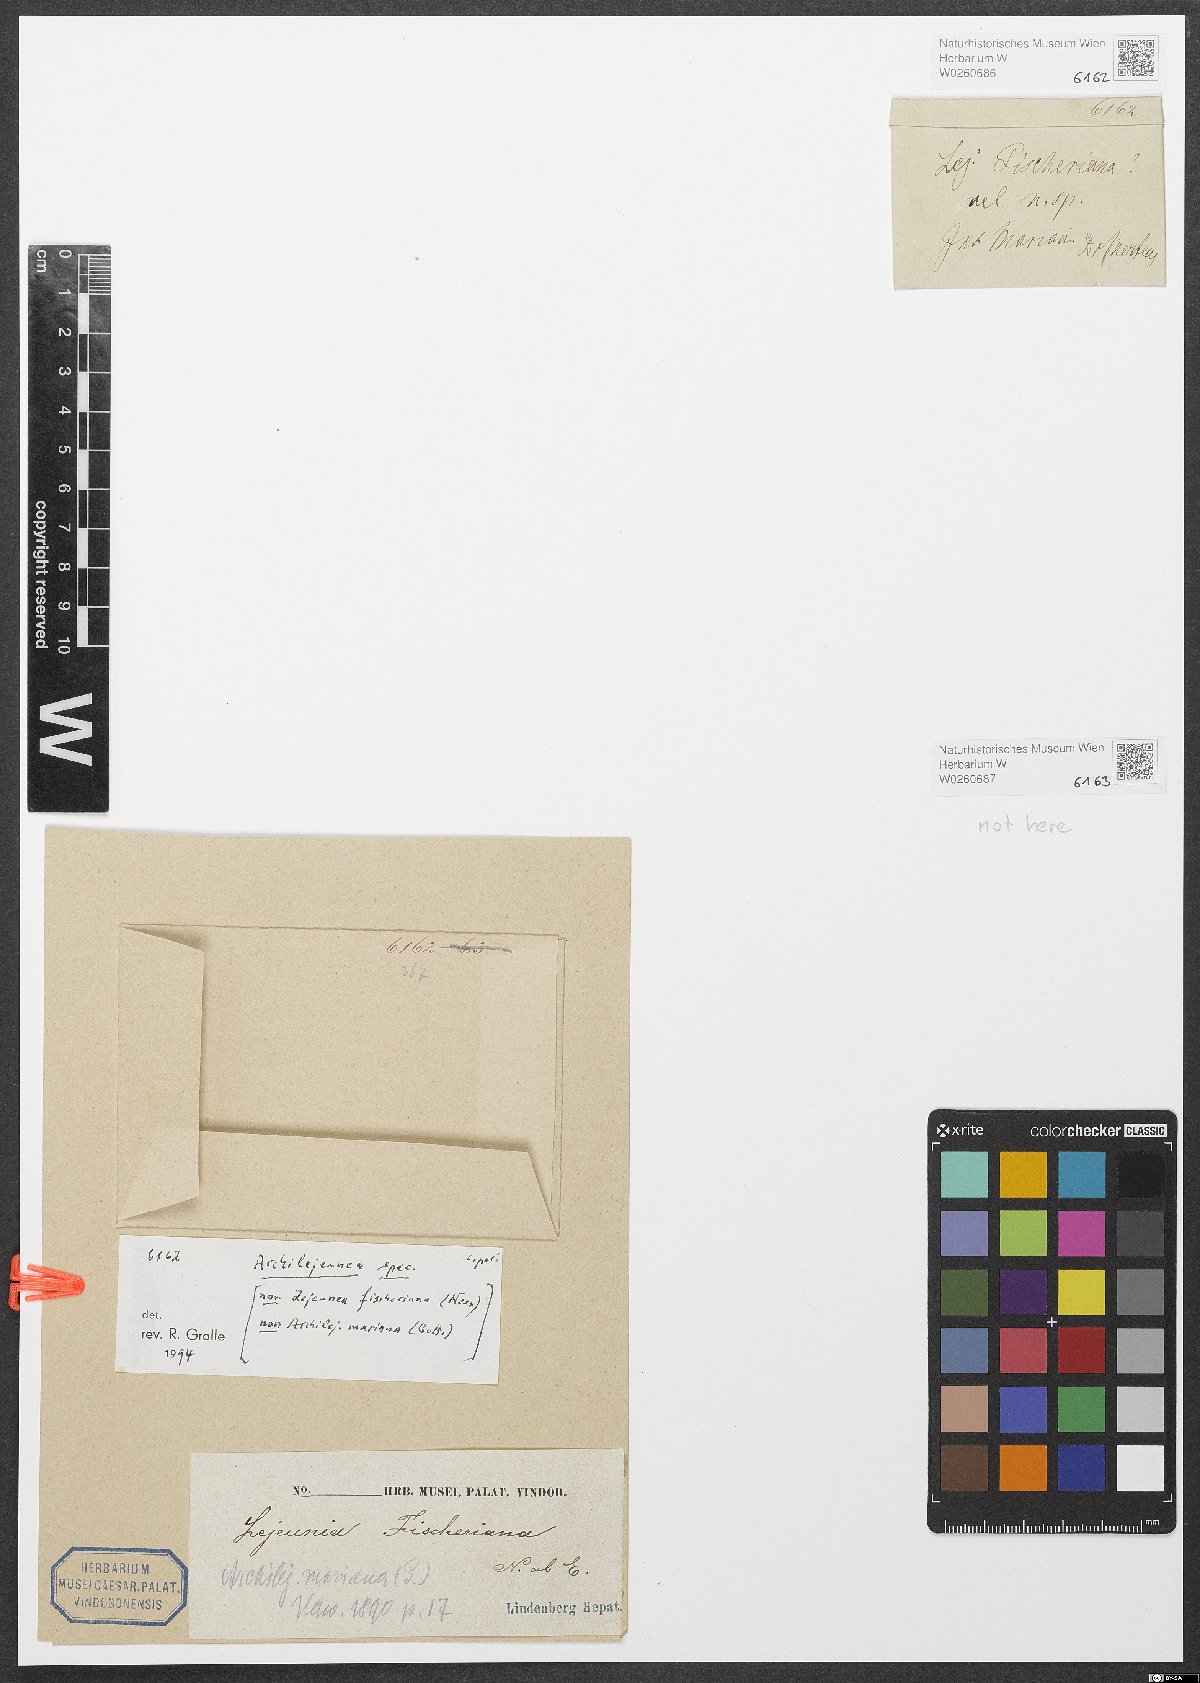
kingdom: Plantae
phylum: Marchantiophyta
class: Jungermanniopsida
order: Porellales
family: Lejeuneaceae
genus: Archilejeunea
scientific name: Archilejeunea
